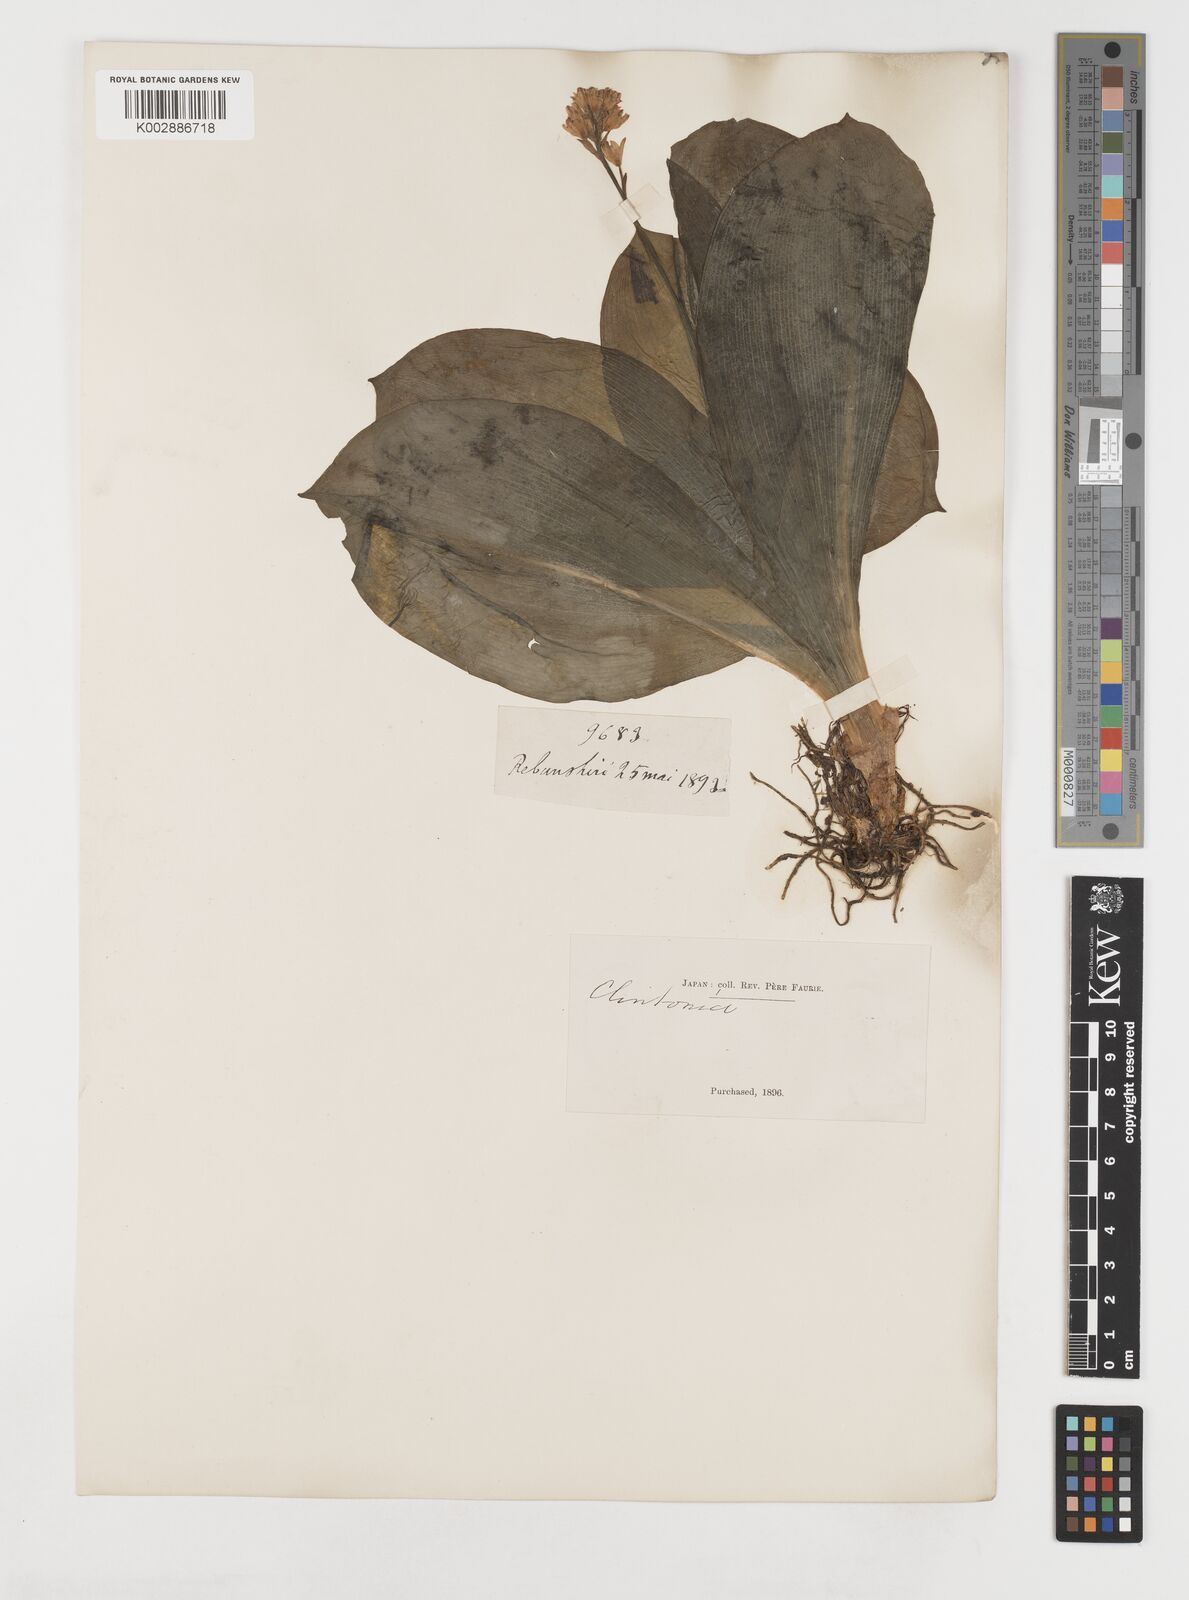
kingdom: Plantae
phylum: Tracheophyta
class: Liliopsida
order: Liliales
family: Liliaceae
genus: Clintonia
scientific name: Clintonia udensis
